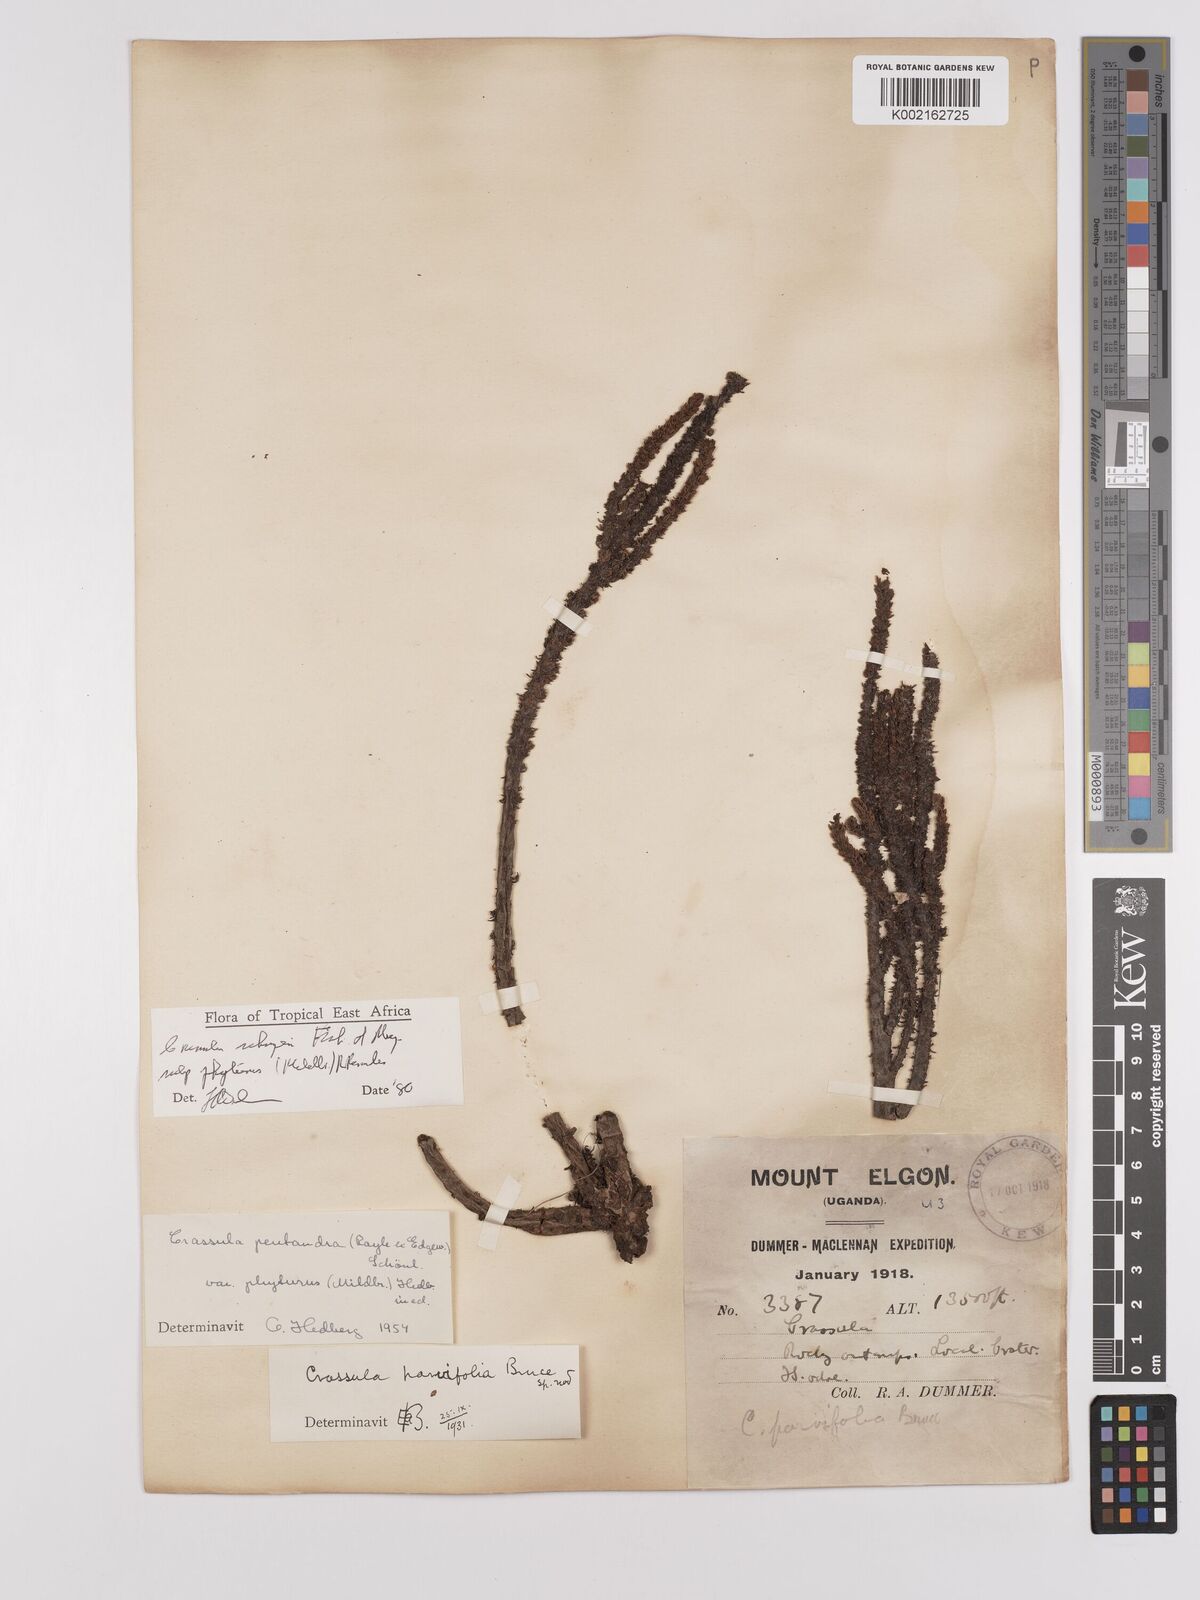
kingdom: Plantae
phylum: Tracheophyta
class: Magnoliopsida
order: Saxifragales
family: Crassulaceae
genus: Crassula
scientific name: Crassula schimperi
